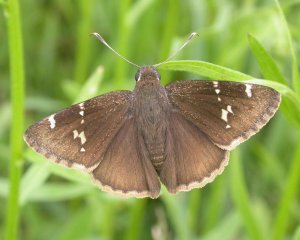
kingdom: Animalia
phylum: Arthropoda
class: Insecta
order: Lepidoptera
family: Hesperiidae
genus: Autochton
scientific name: Autochton
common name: Southern Cloudywing
